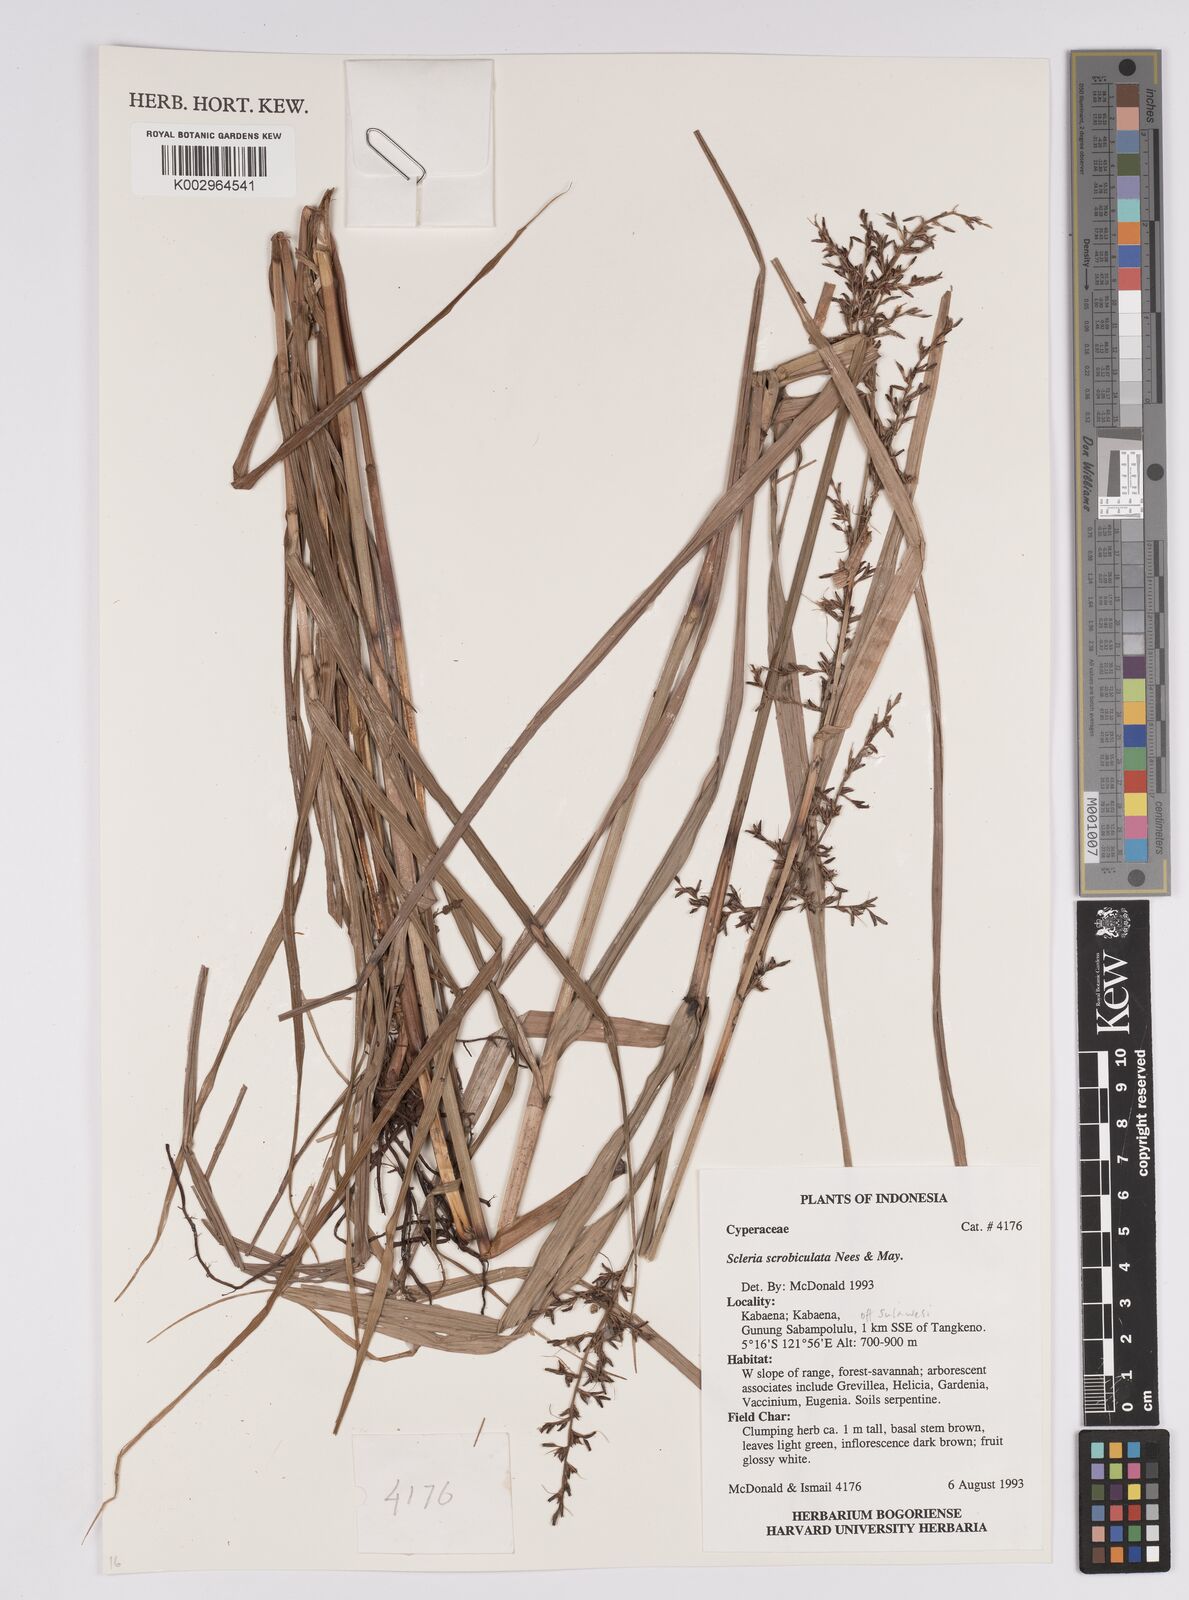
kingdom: Plantae
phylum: Tracheophyta
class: Liliopsida
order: Poales
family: Cyperaceae
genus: Scleria
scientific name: Scleria scrobiculata
